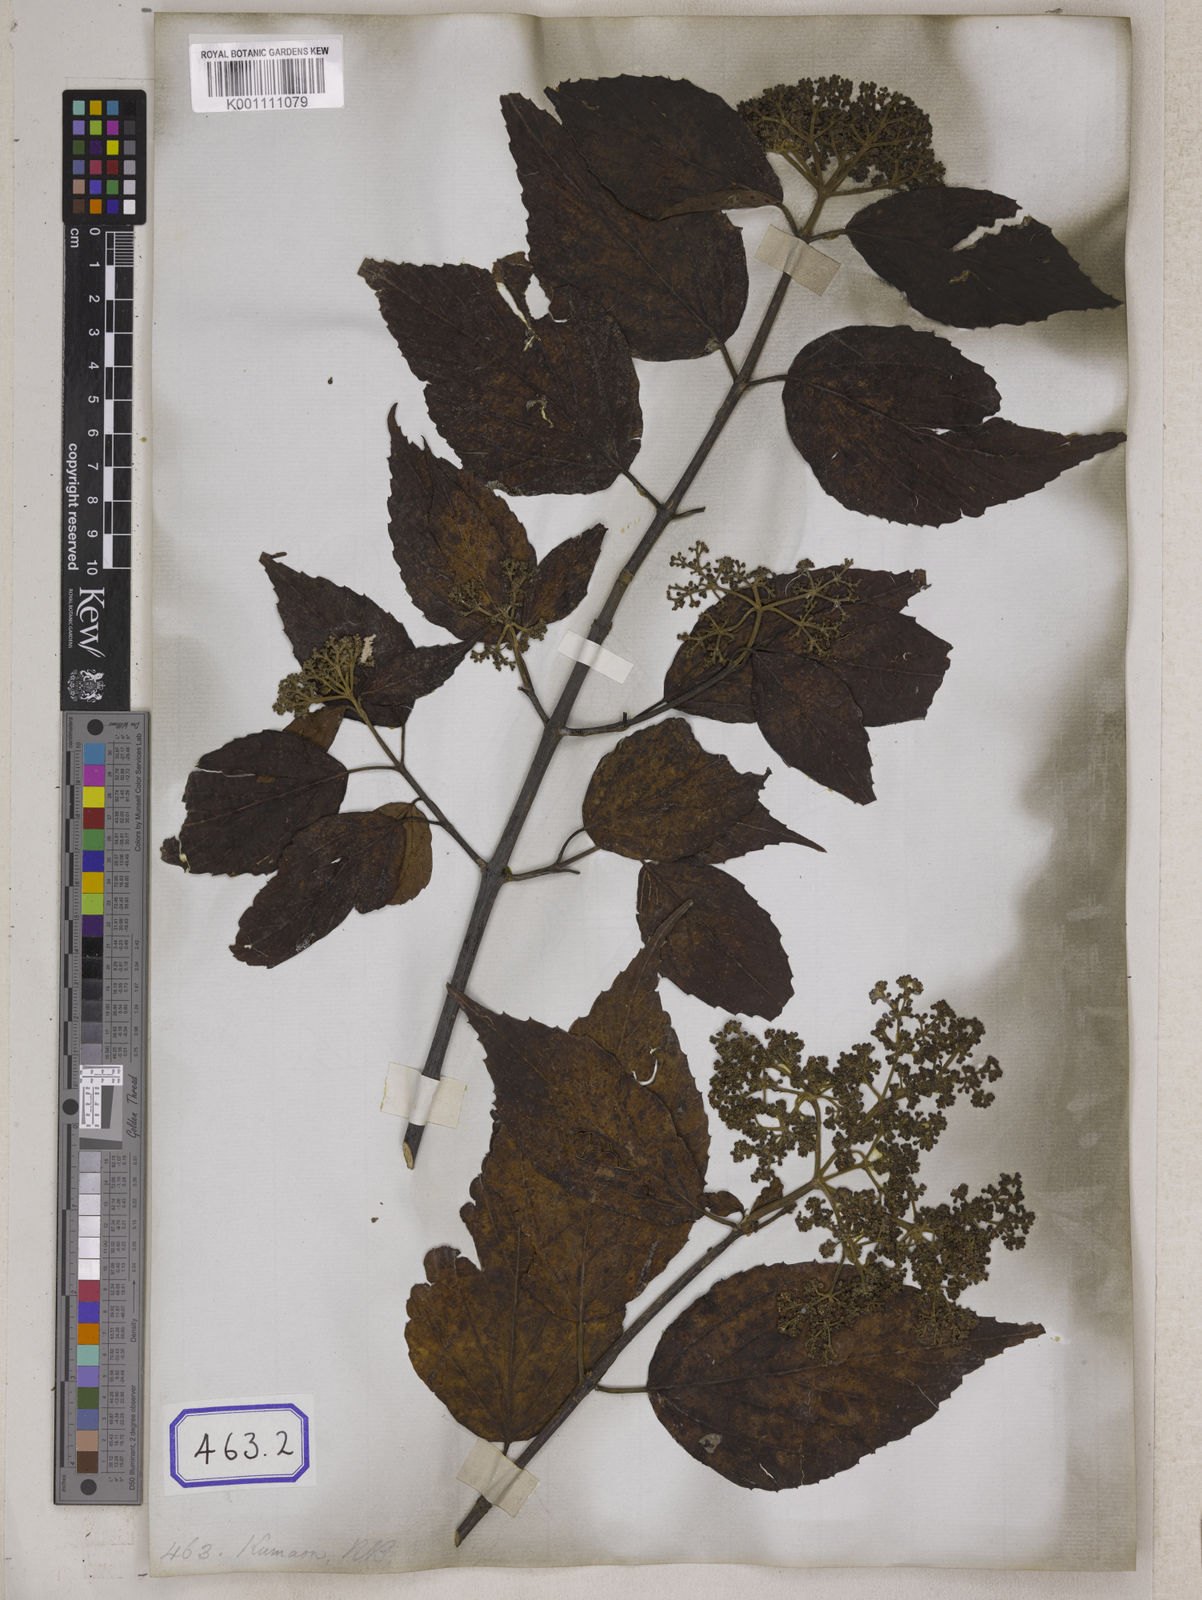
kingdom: Plantae
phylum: Tracheophyta
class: Magnoliopsida
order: Dipsacales
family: Viburnaceae
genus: Viburnum
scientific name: Viburnum
